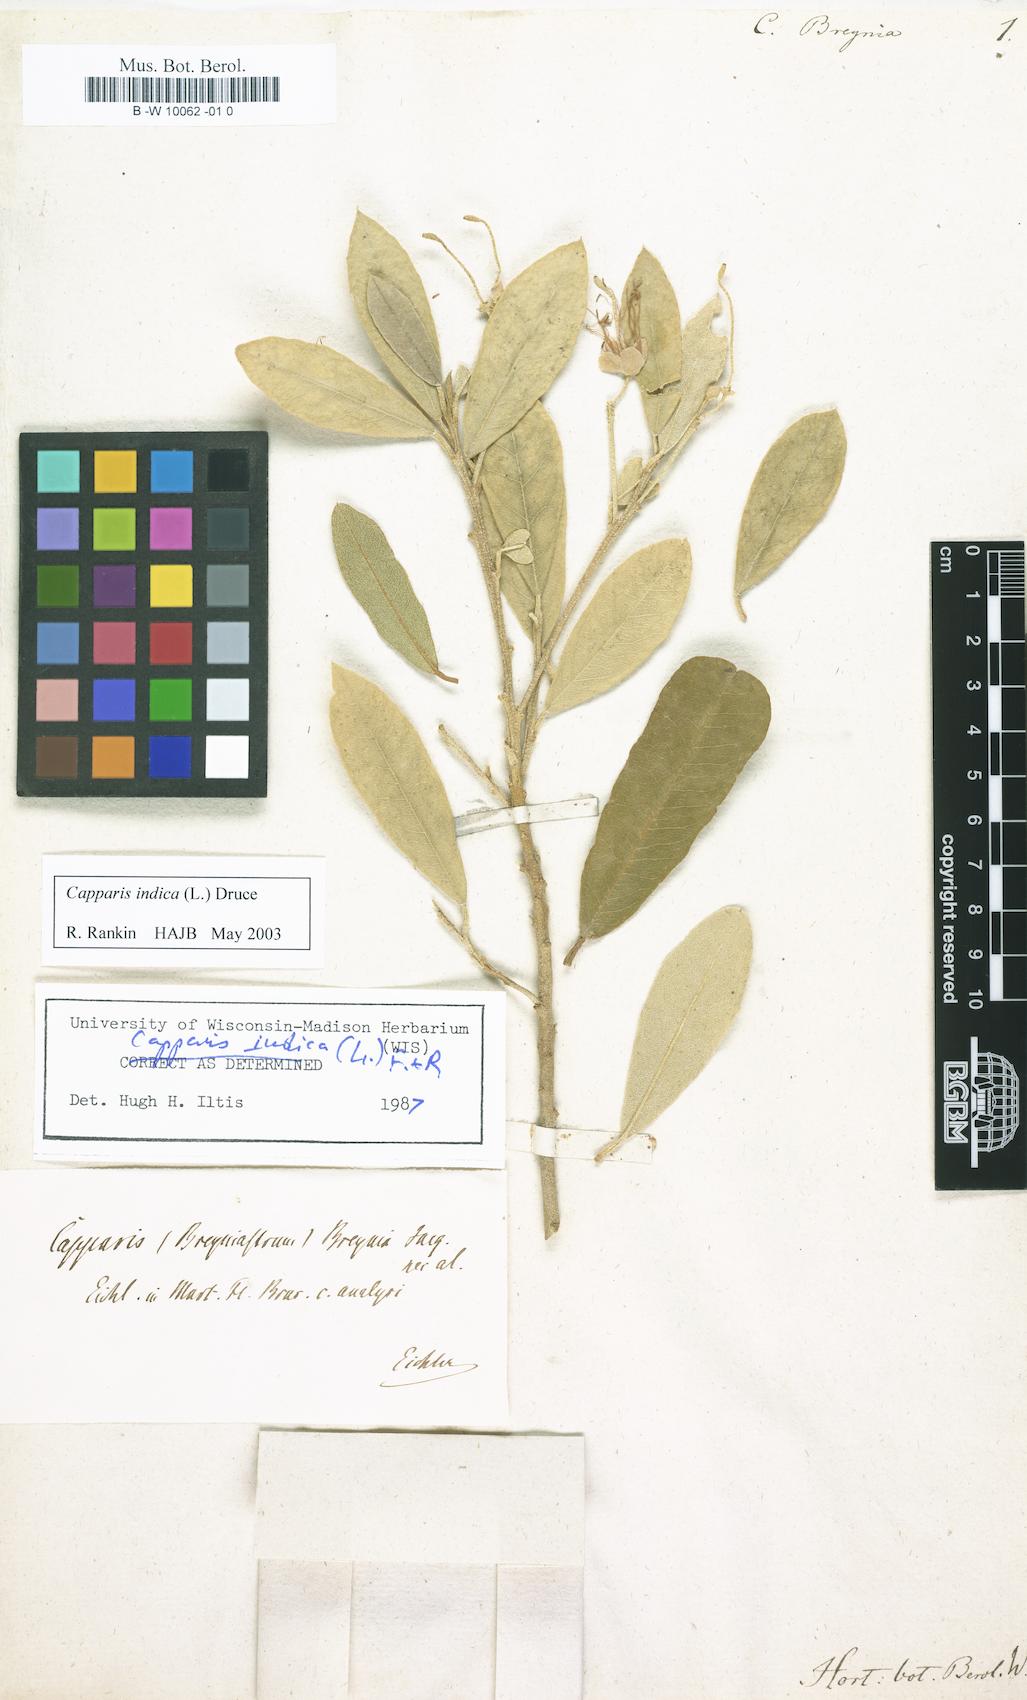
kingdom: Plantae
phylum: Tracheophyta
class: Magnoliopsida
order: Brassicales
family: Capparaceae
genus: Quadrella
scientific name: Quadrella
